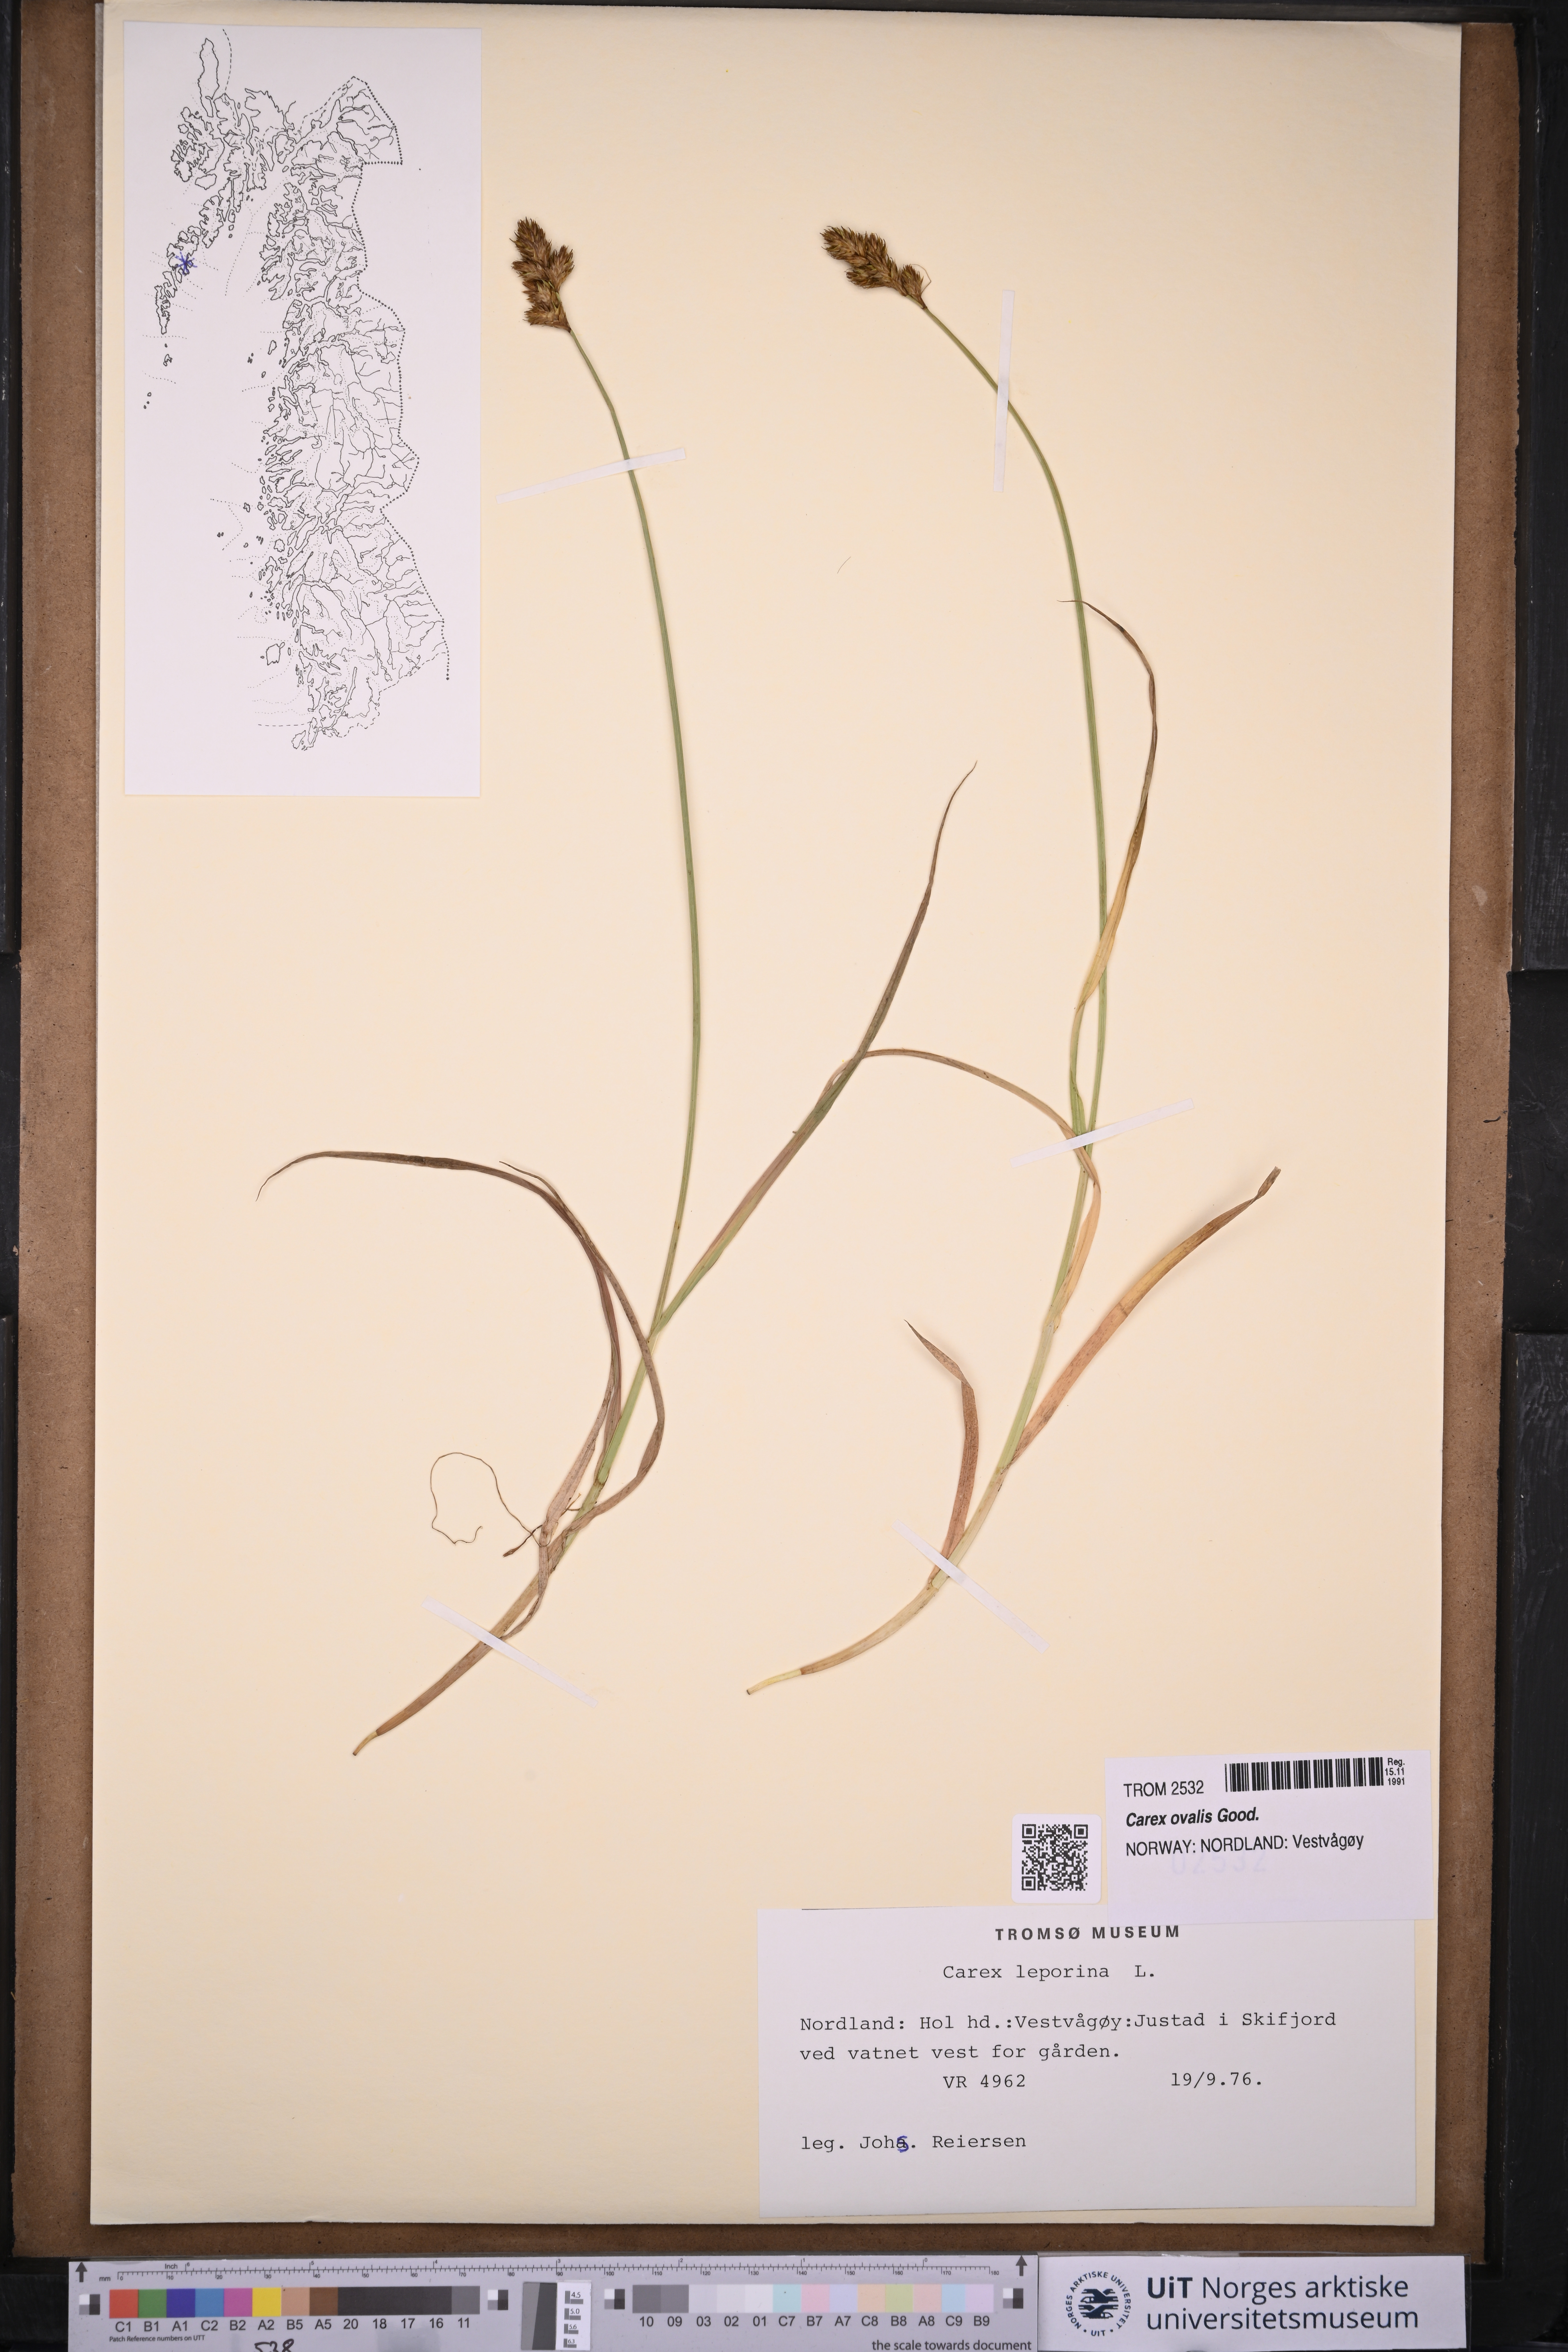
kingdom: Plantae
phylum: Tracheophyta
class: Liliopsida
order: Poales
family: Cyperaceae
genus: Carex
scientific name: Carex leporina
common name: Oval sedge
